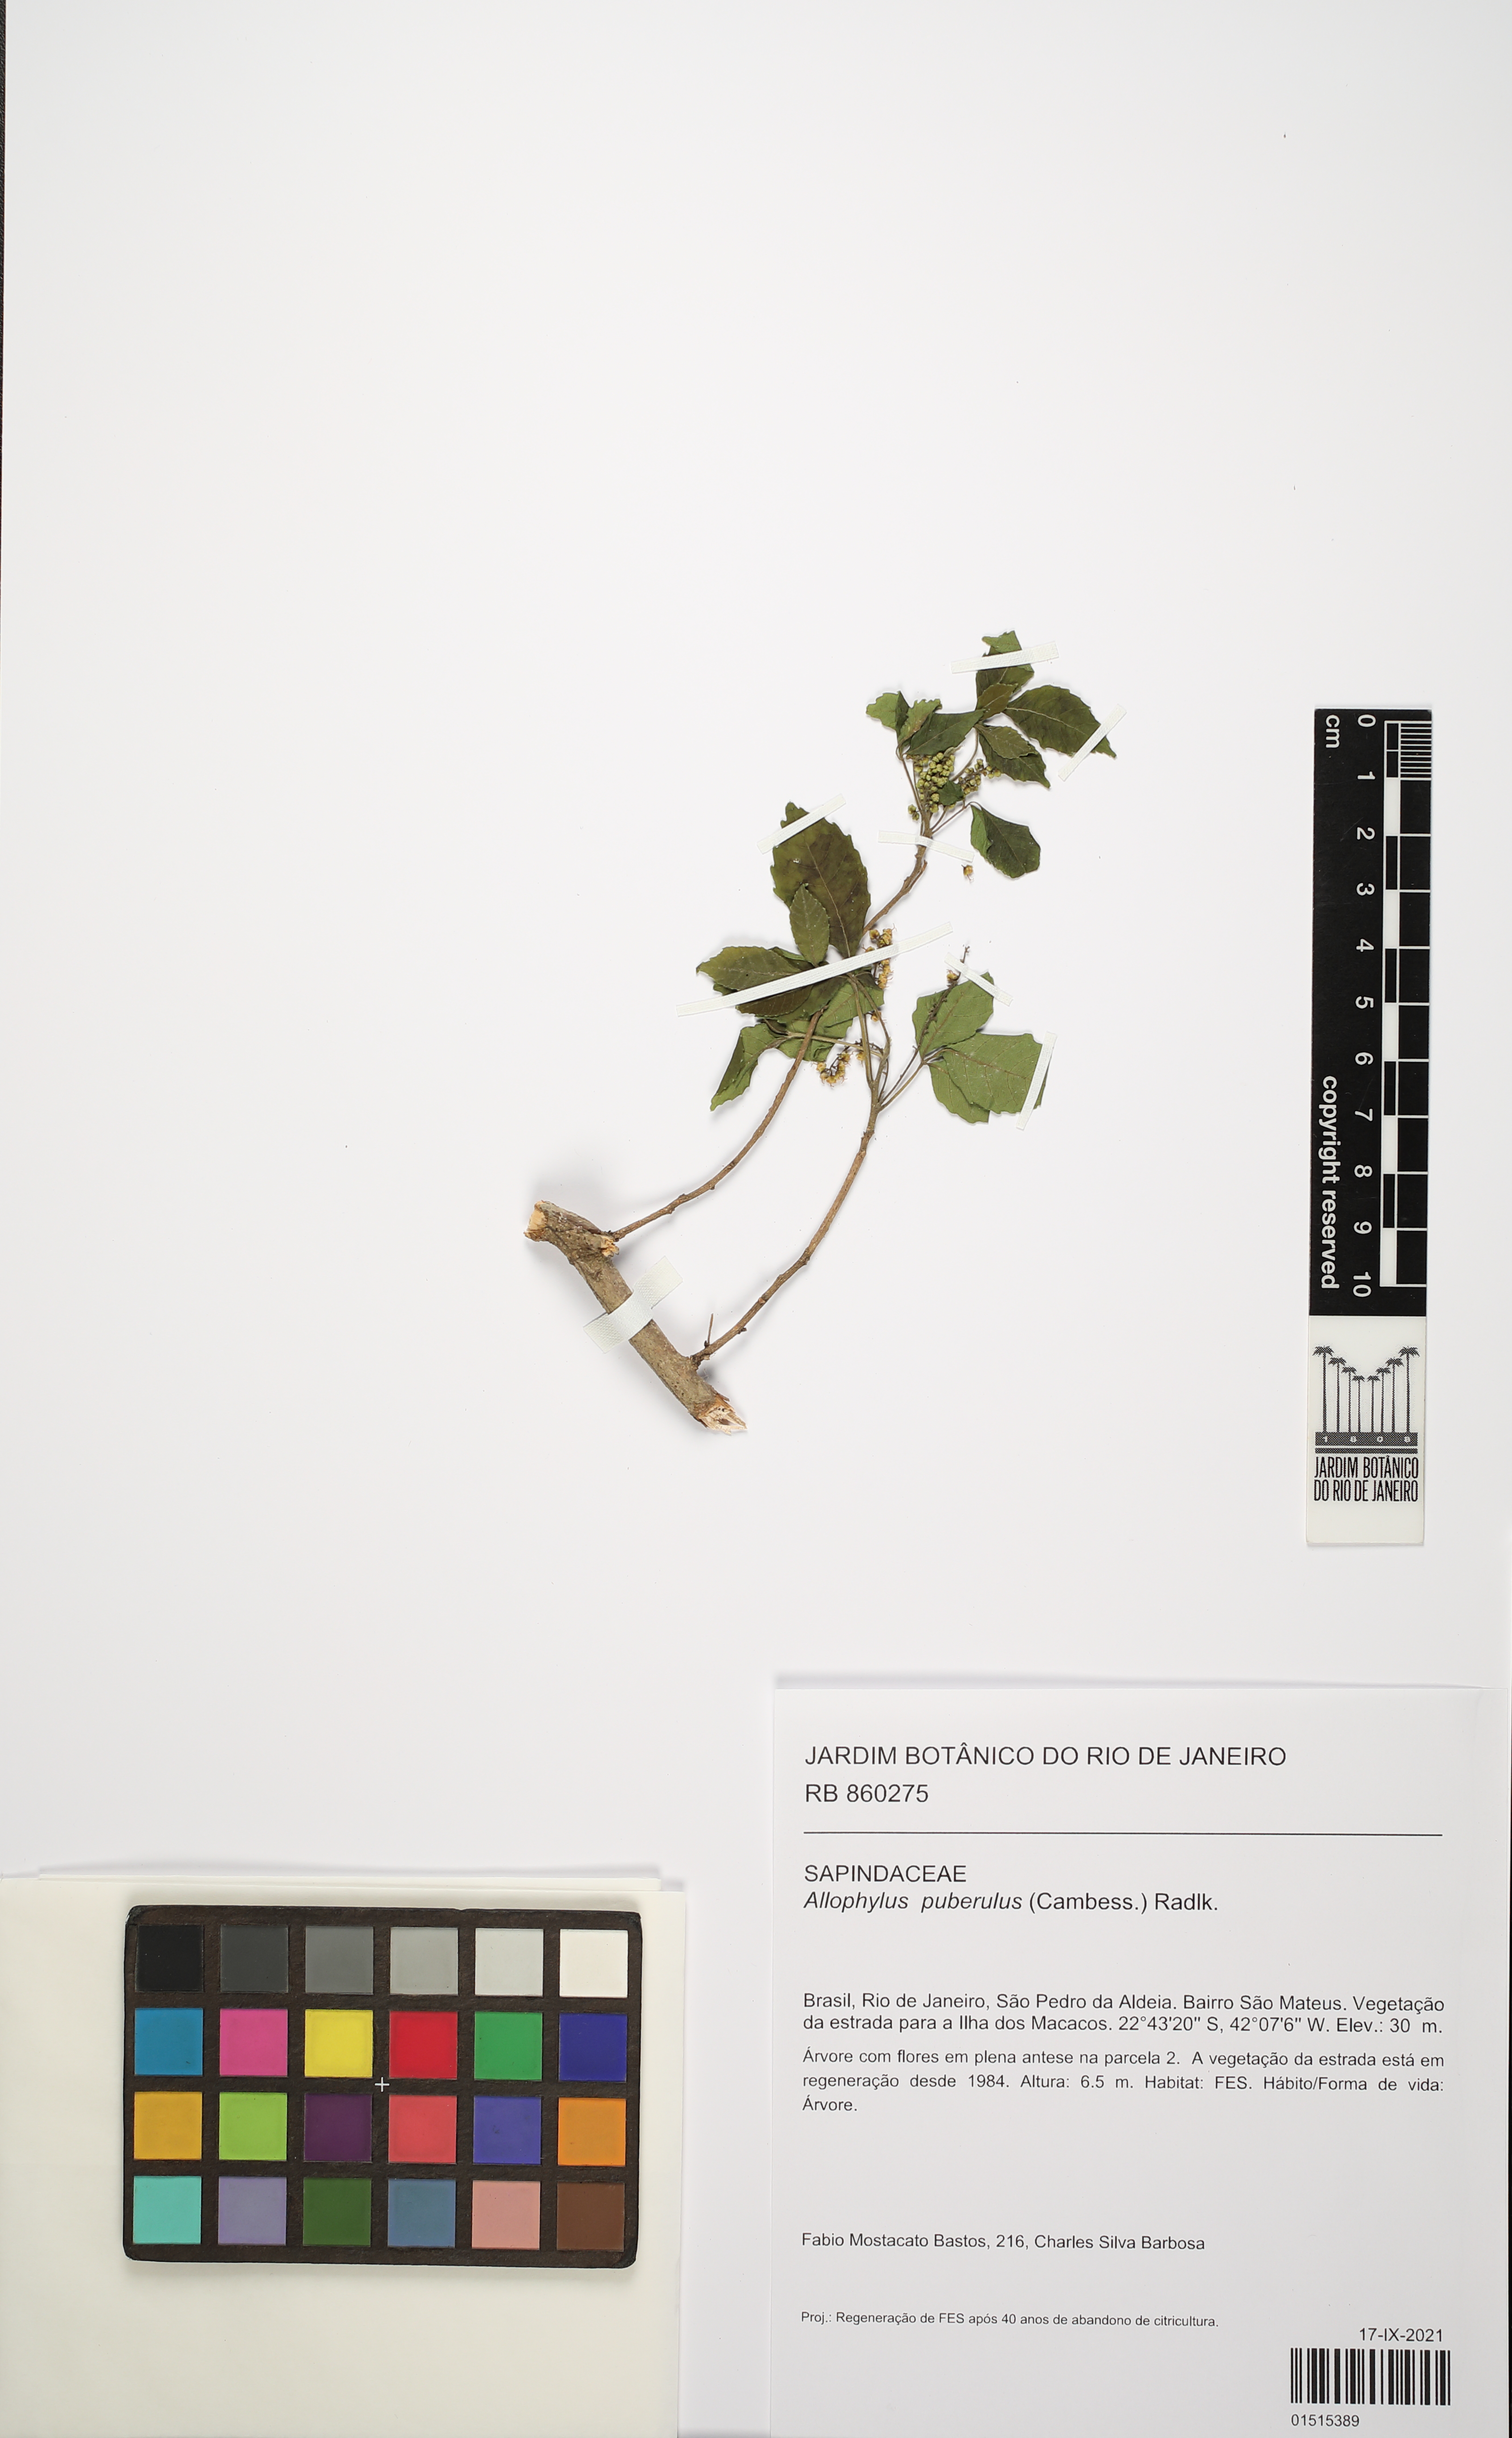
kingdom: Plantae
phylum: Tracheophyta
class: Magnoliopsida
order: Sapindales
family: Sapindaceae
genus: Allophylus
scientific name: Allophylus puberulus
